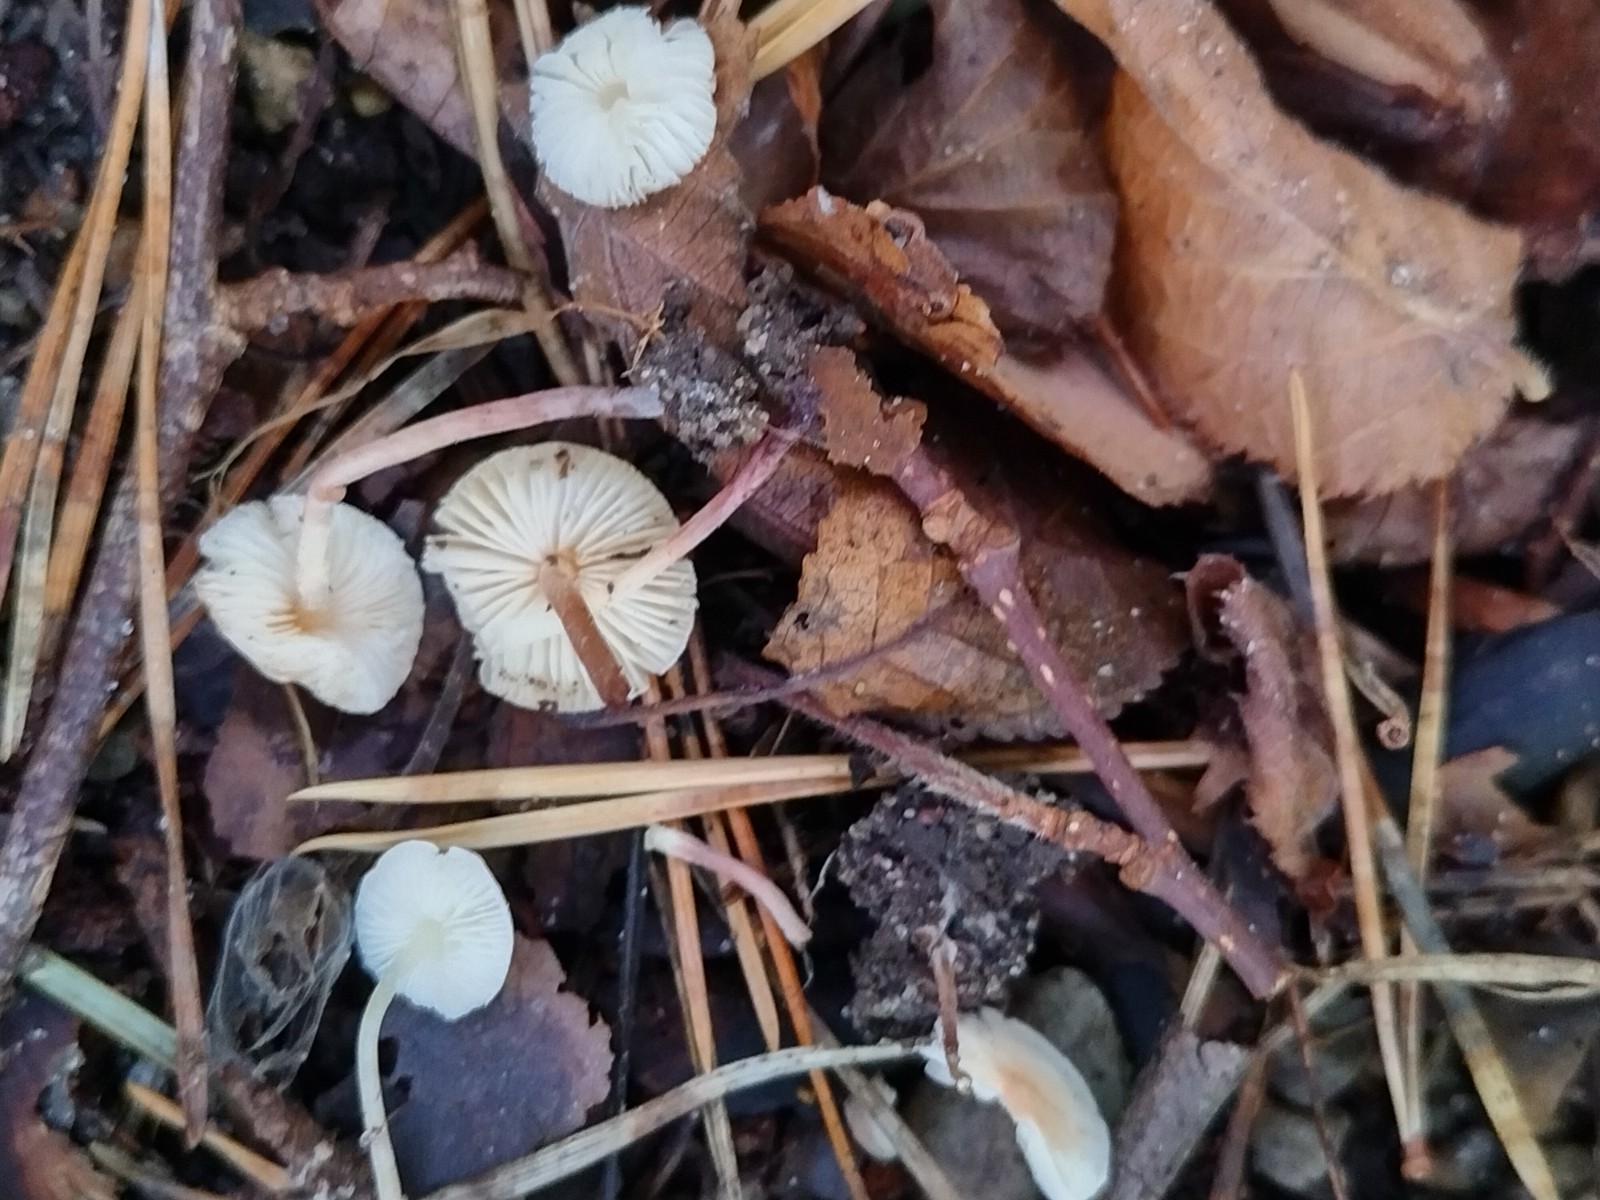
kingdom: Fungi
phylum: Basidiomycota
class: Agaricomycetes
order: Agaricales
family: Agaricaceae
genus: Cystolepiota
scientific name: Cystolepiota seminuda
